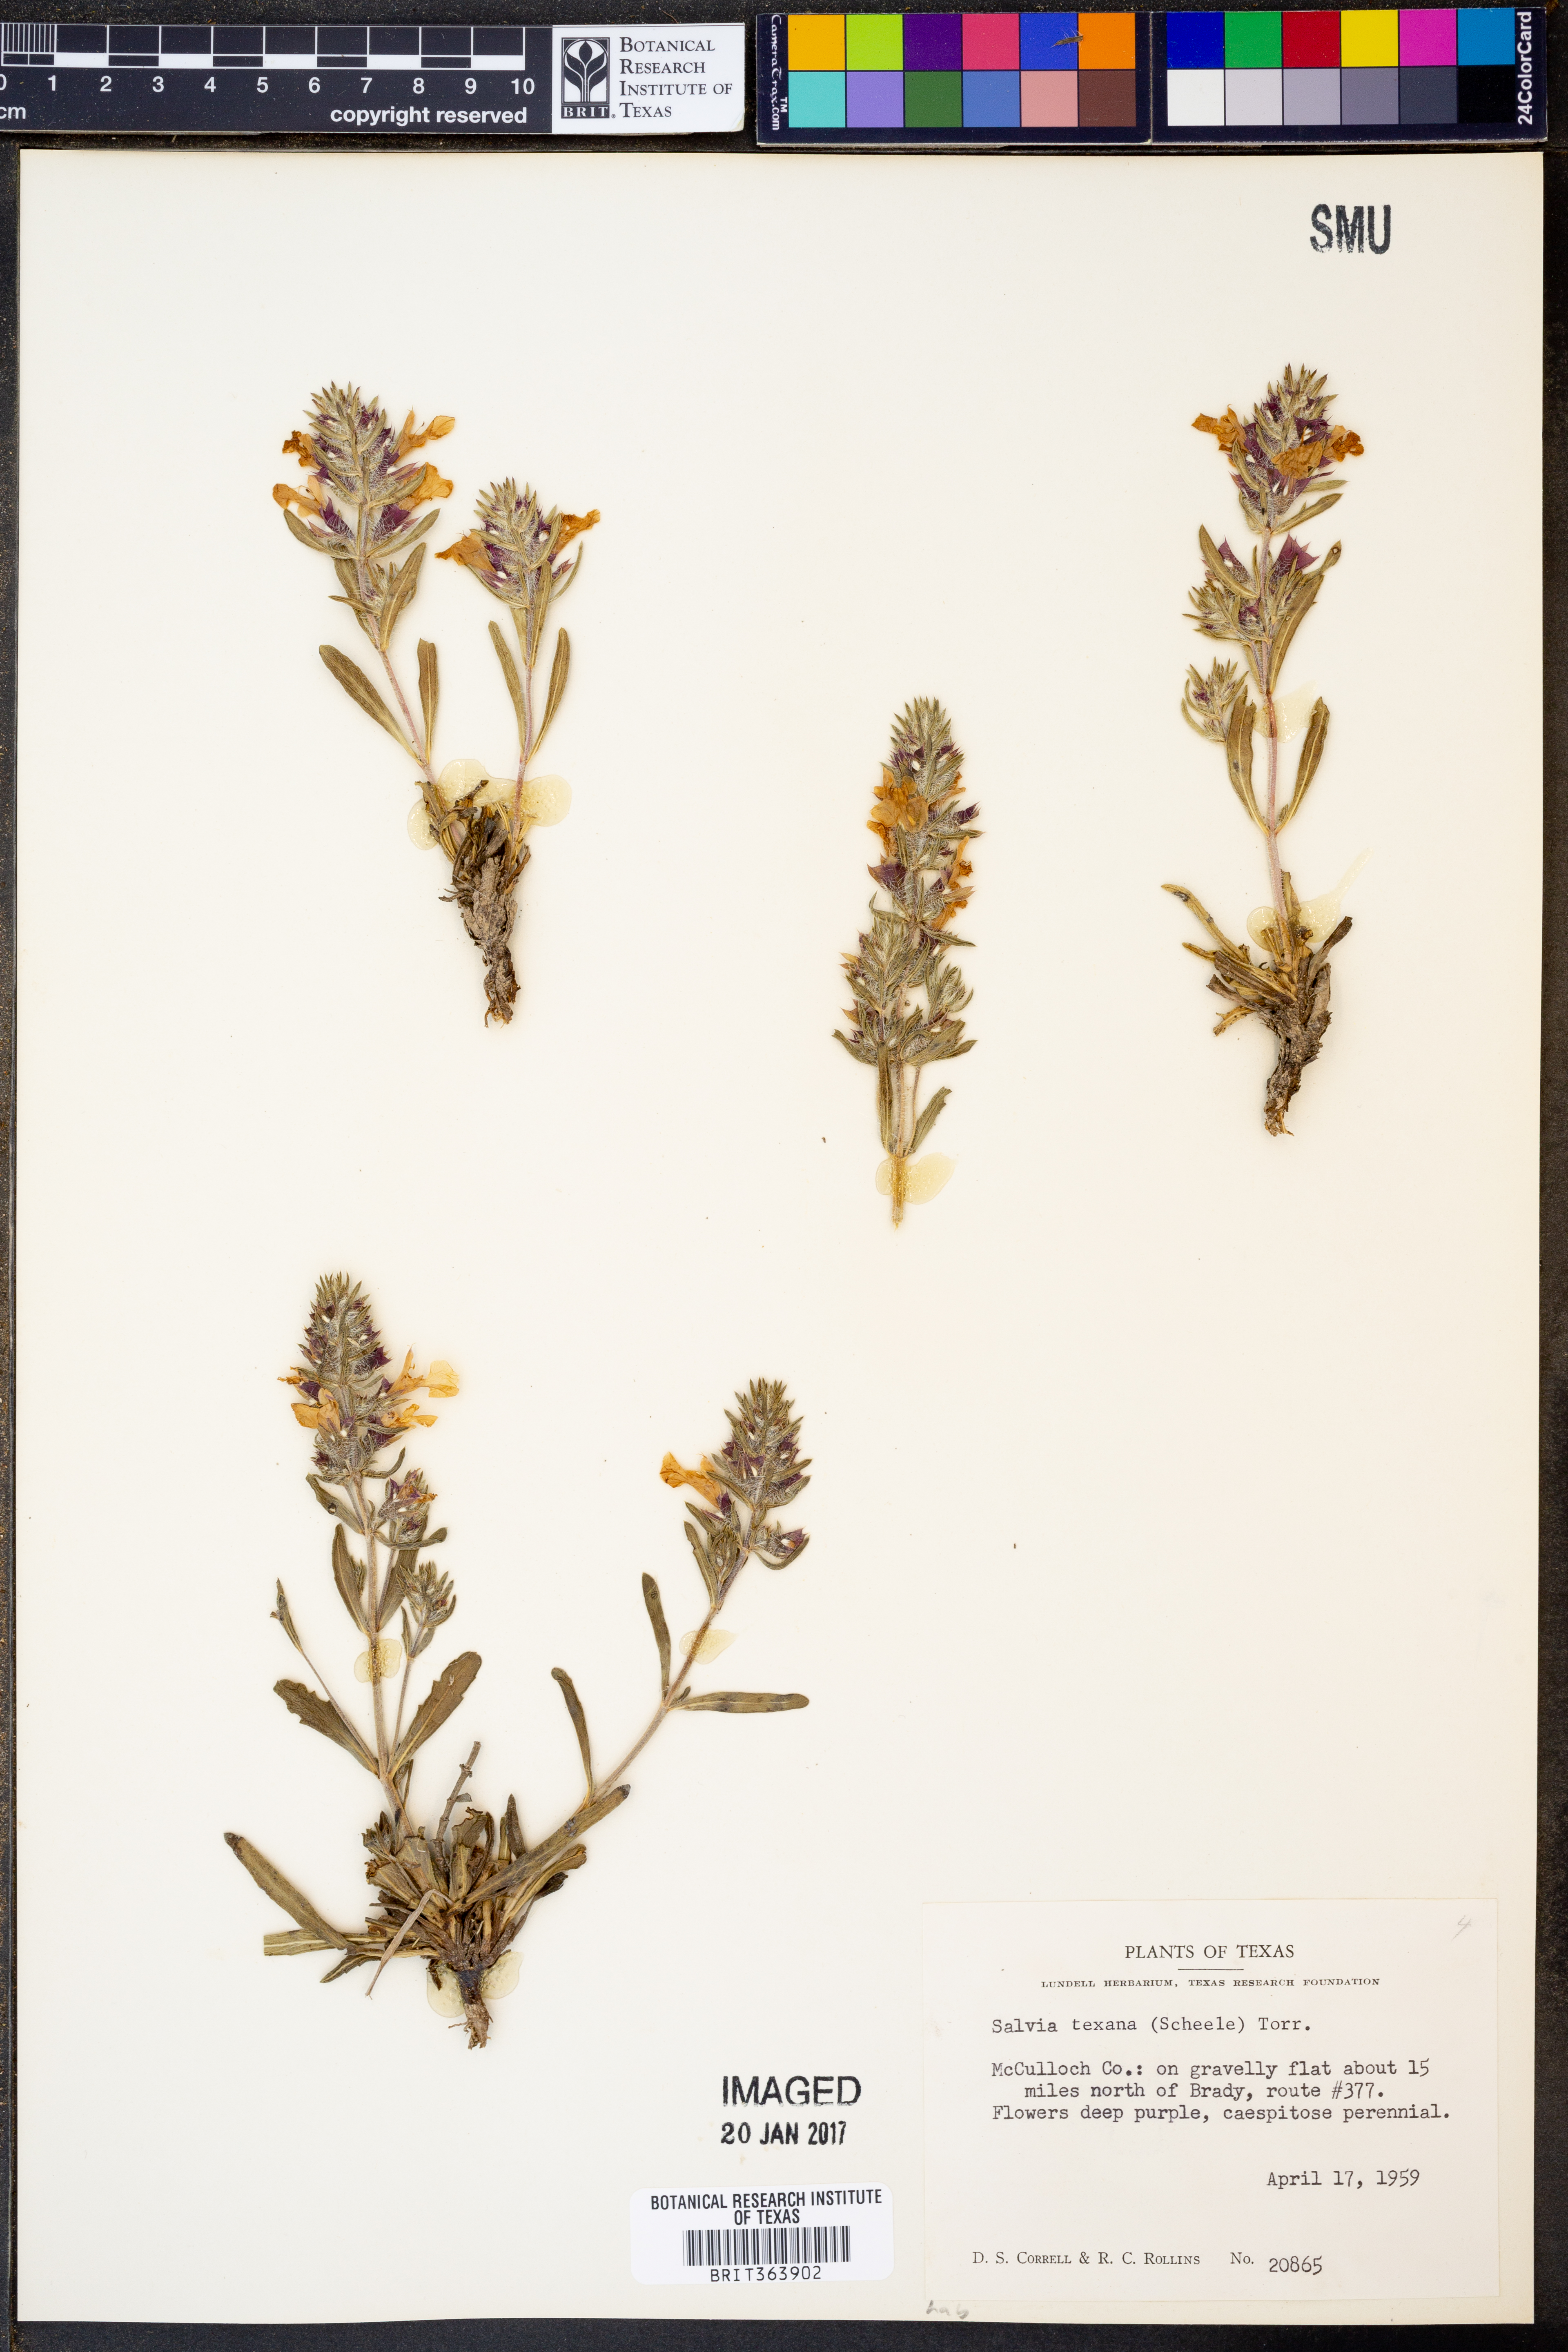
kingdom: Plantae
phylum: Tracheophyta
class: Magnoliopsida
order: Lamiales
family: Lamiaceae
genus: Salvia
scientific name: Salvia texana
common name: Texas sage
